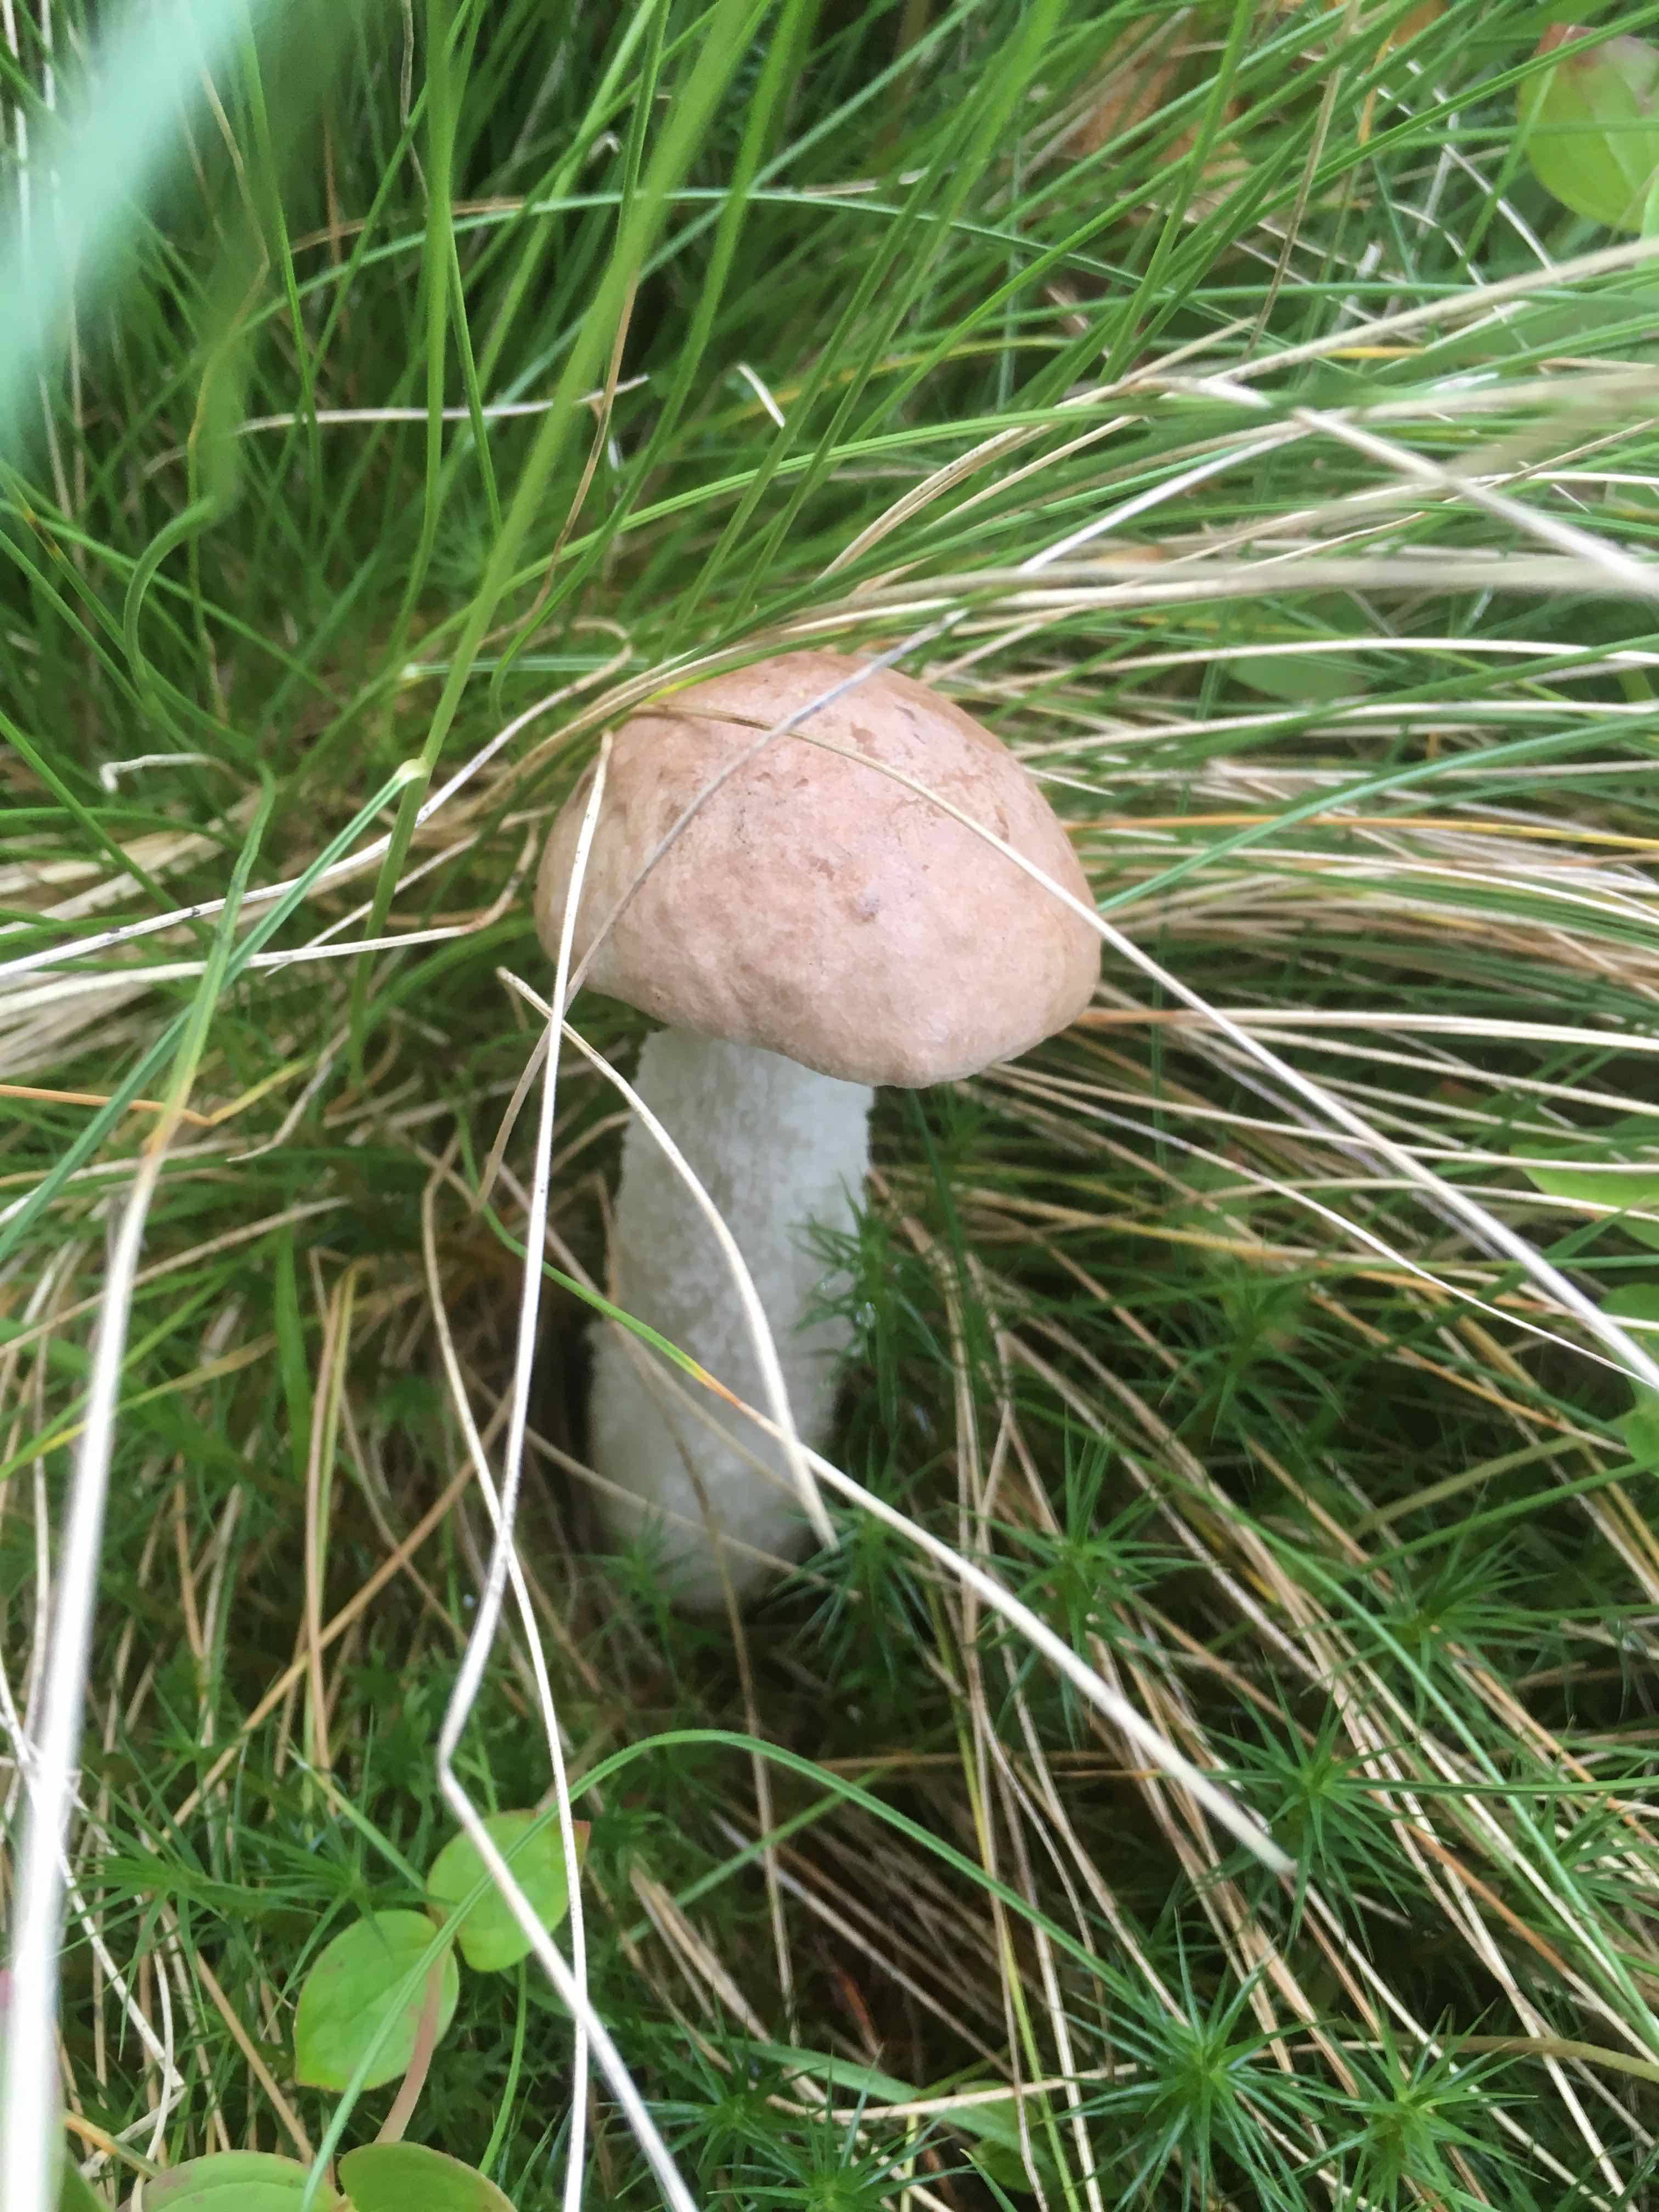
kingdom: Fungi
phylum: Basidiomycota
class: Agaricomycetes
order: Boletales
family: Boletaceae
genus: Leccinum
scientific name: Leccinum
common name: skælrørhat
